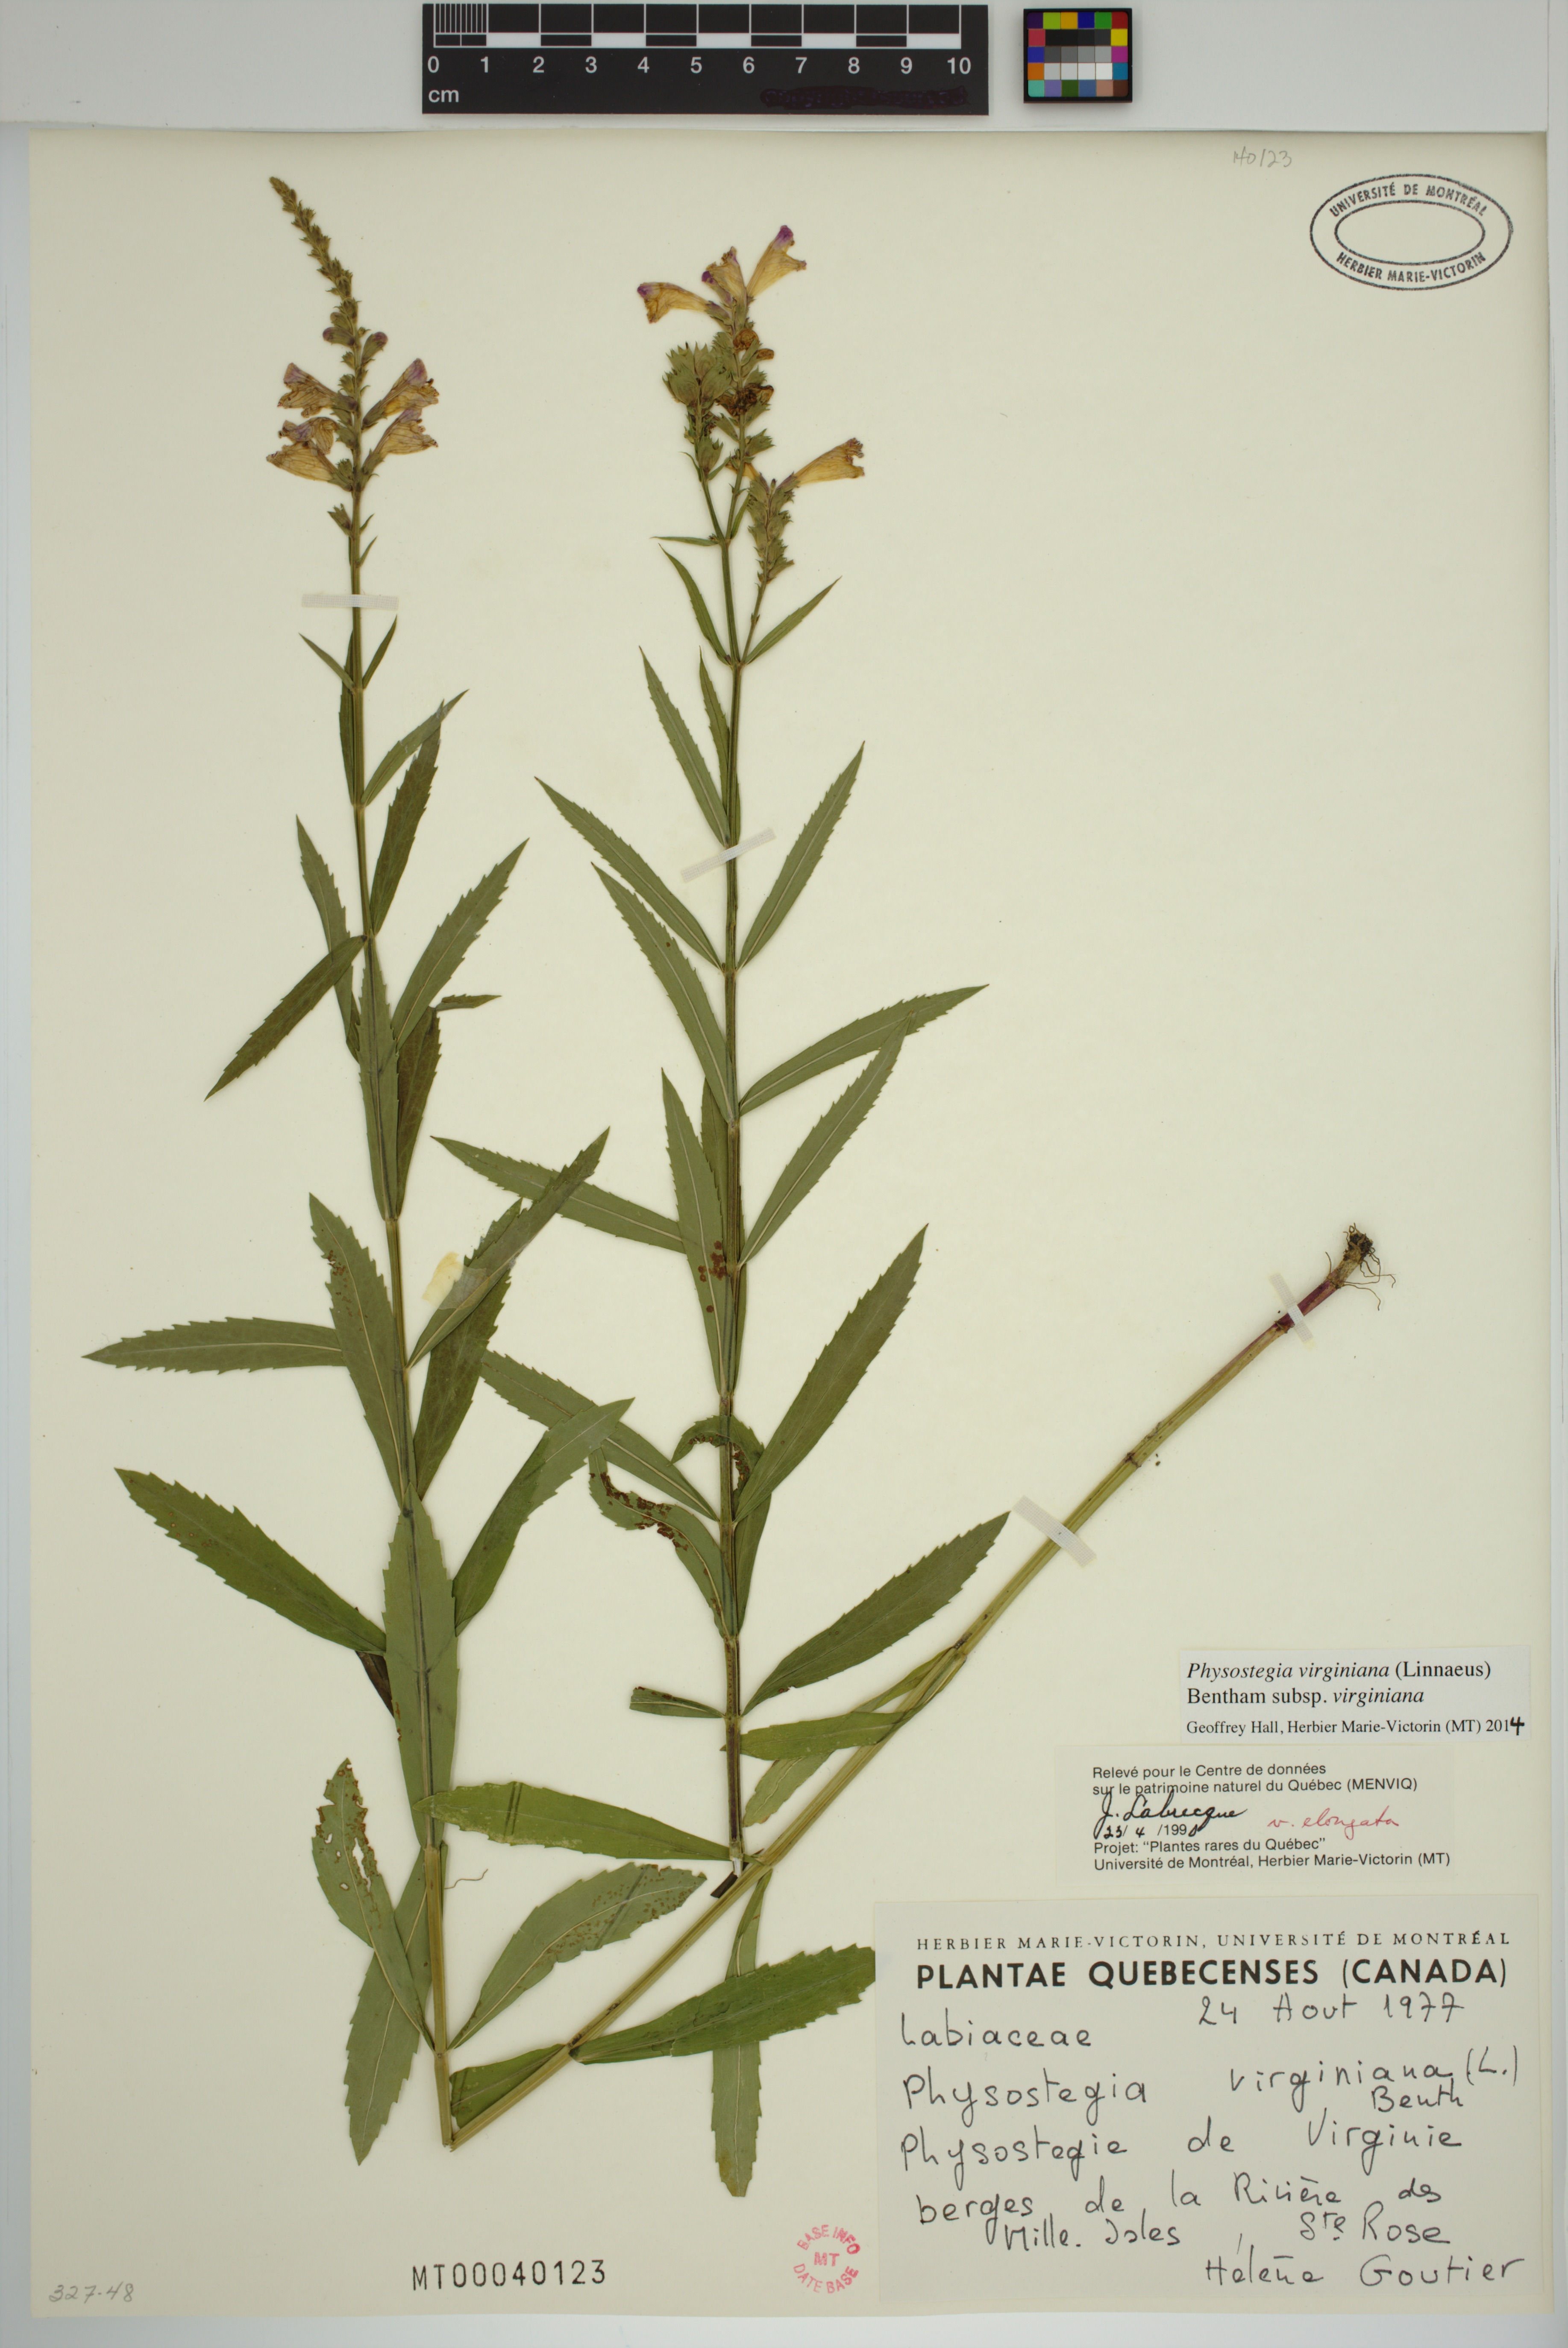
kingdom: Plantae
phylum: Tracheophyta
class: Magnoliopsida
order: Lamiales
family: Lamiaceae
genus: Physostegia
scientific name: Physostegia virginiana
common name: Obedient-plant
